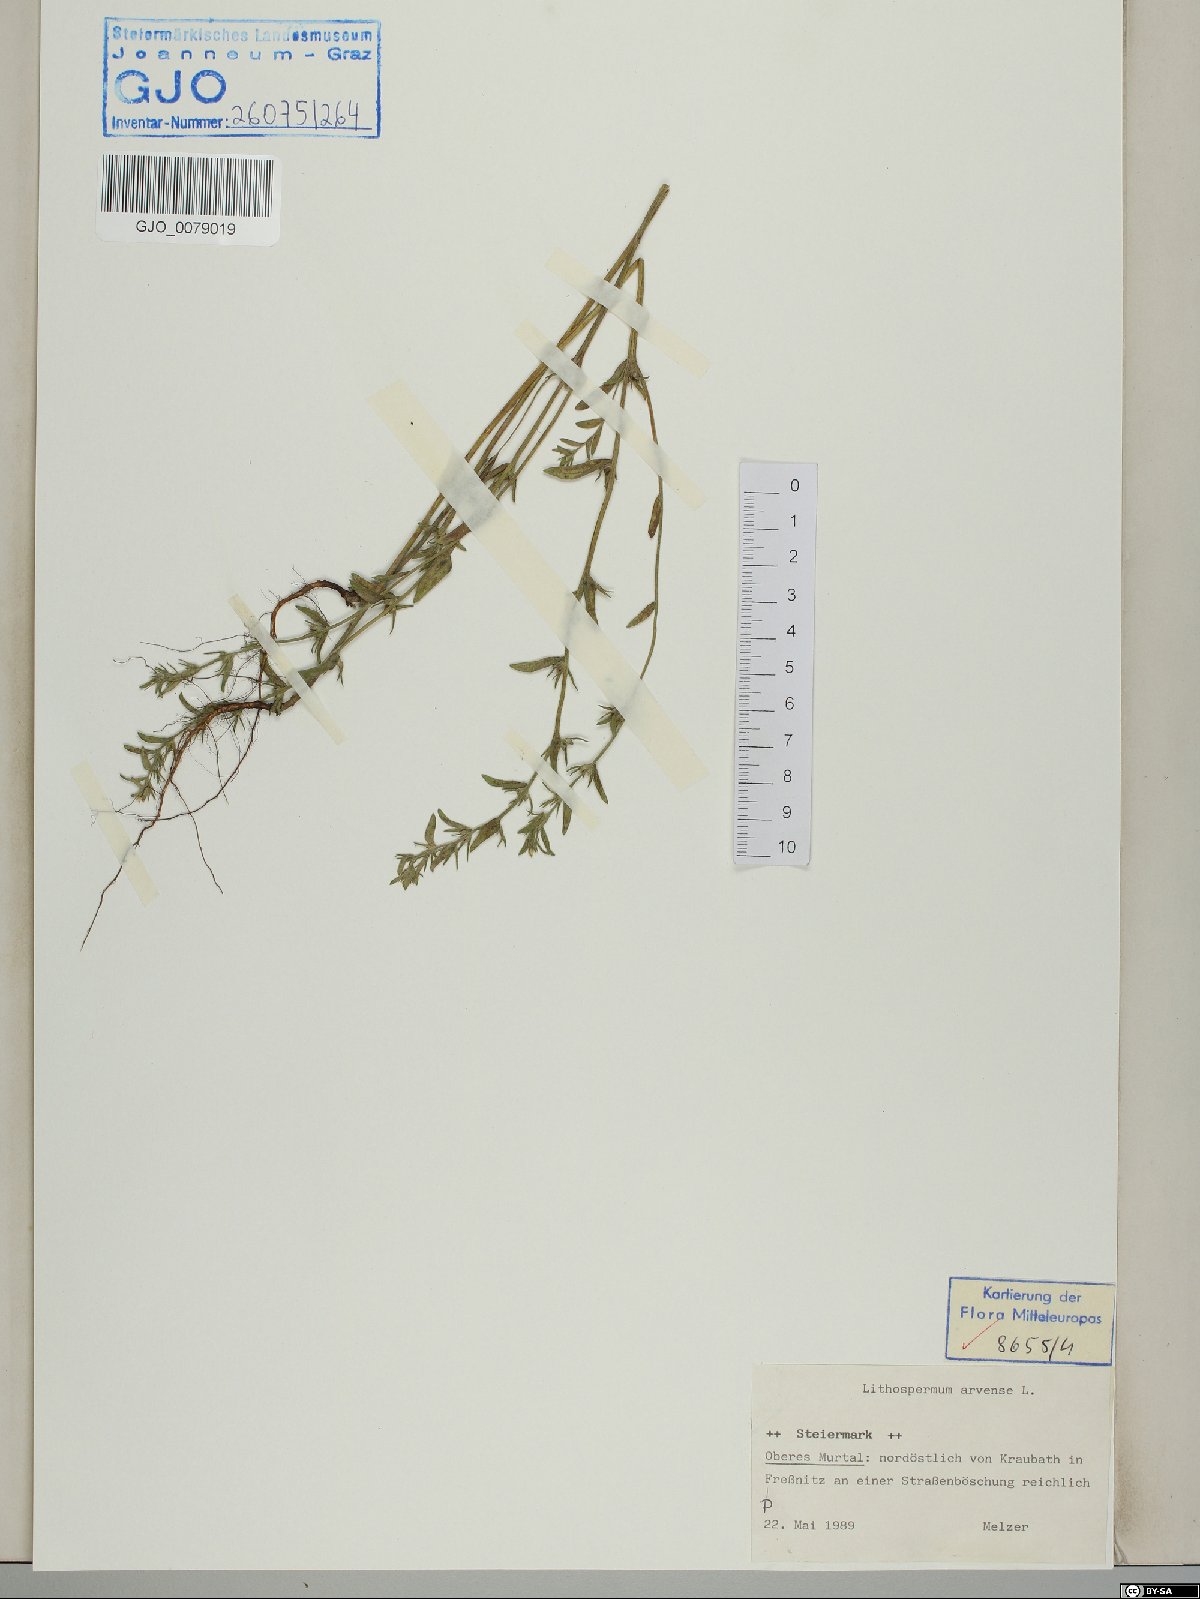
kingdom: Plantae
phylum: Tracheophyta
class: Magnoliopsida
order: Boraginales
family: Boraginaceae
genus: Buglossoides
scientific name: Buglossoides arvensis
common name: Corn gromwell
